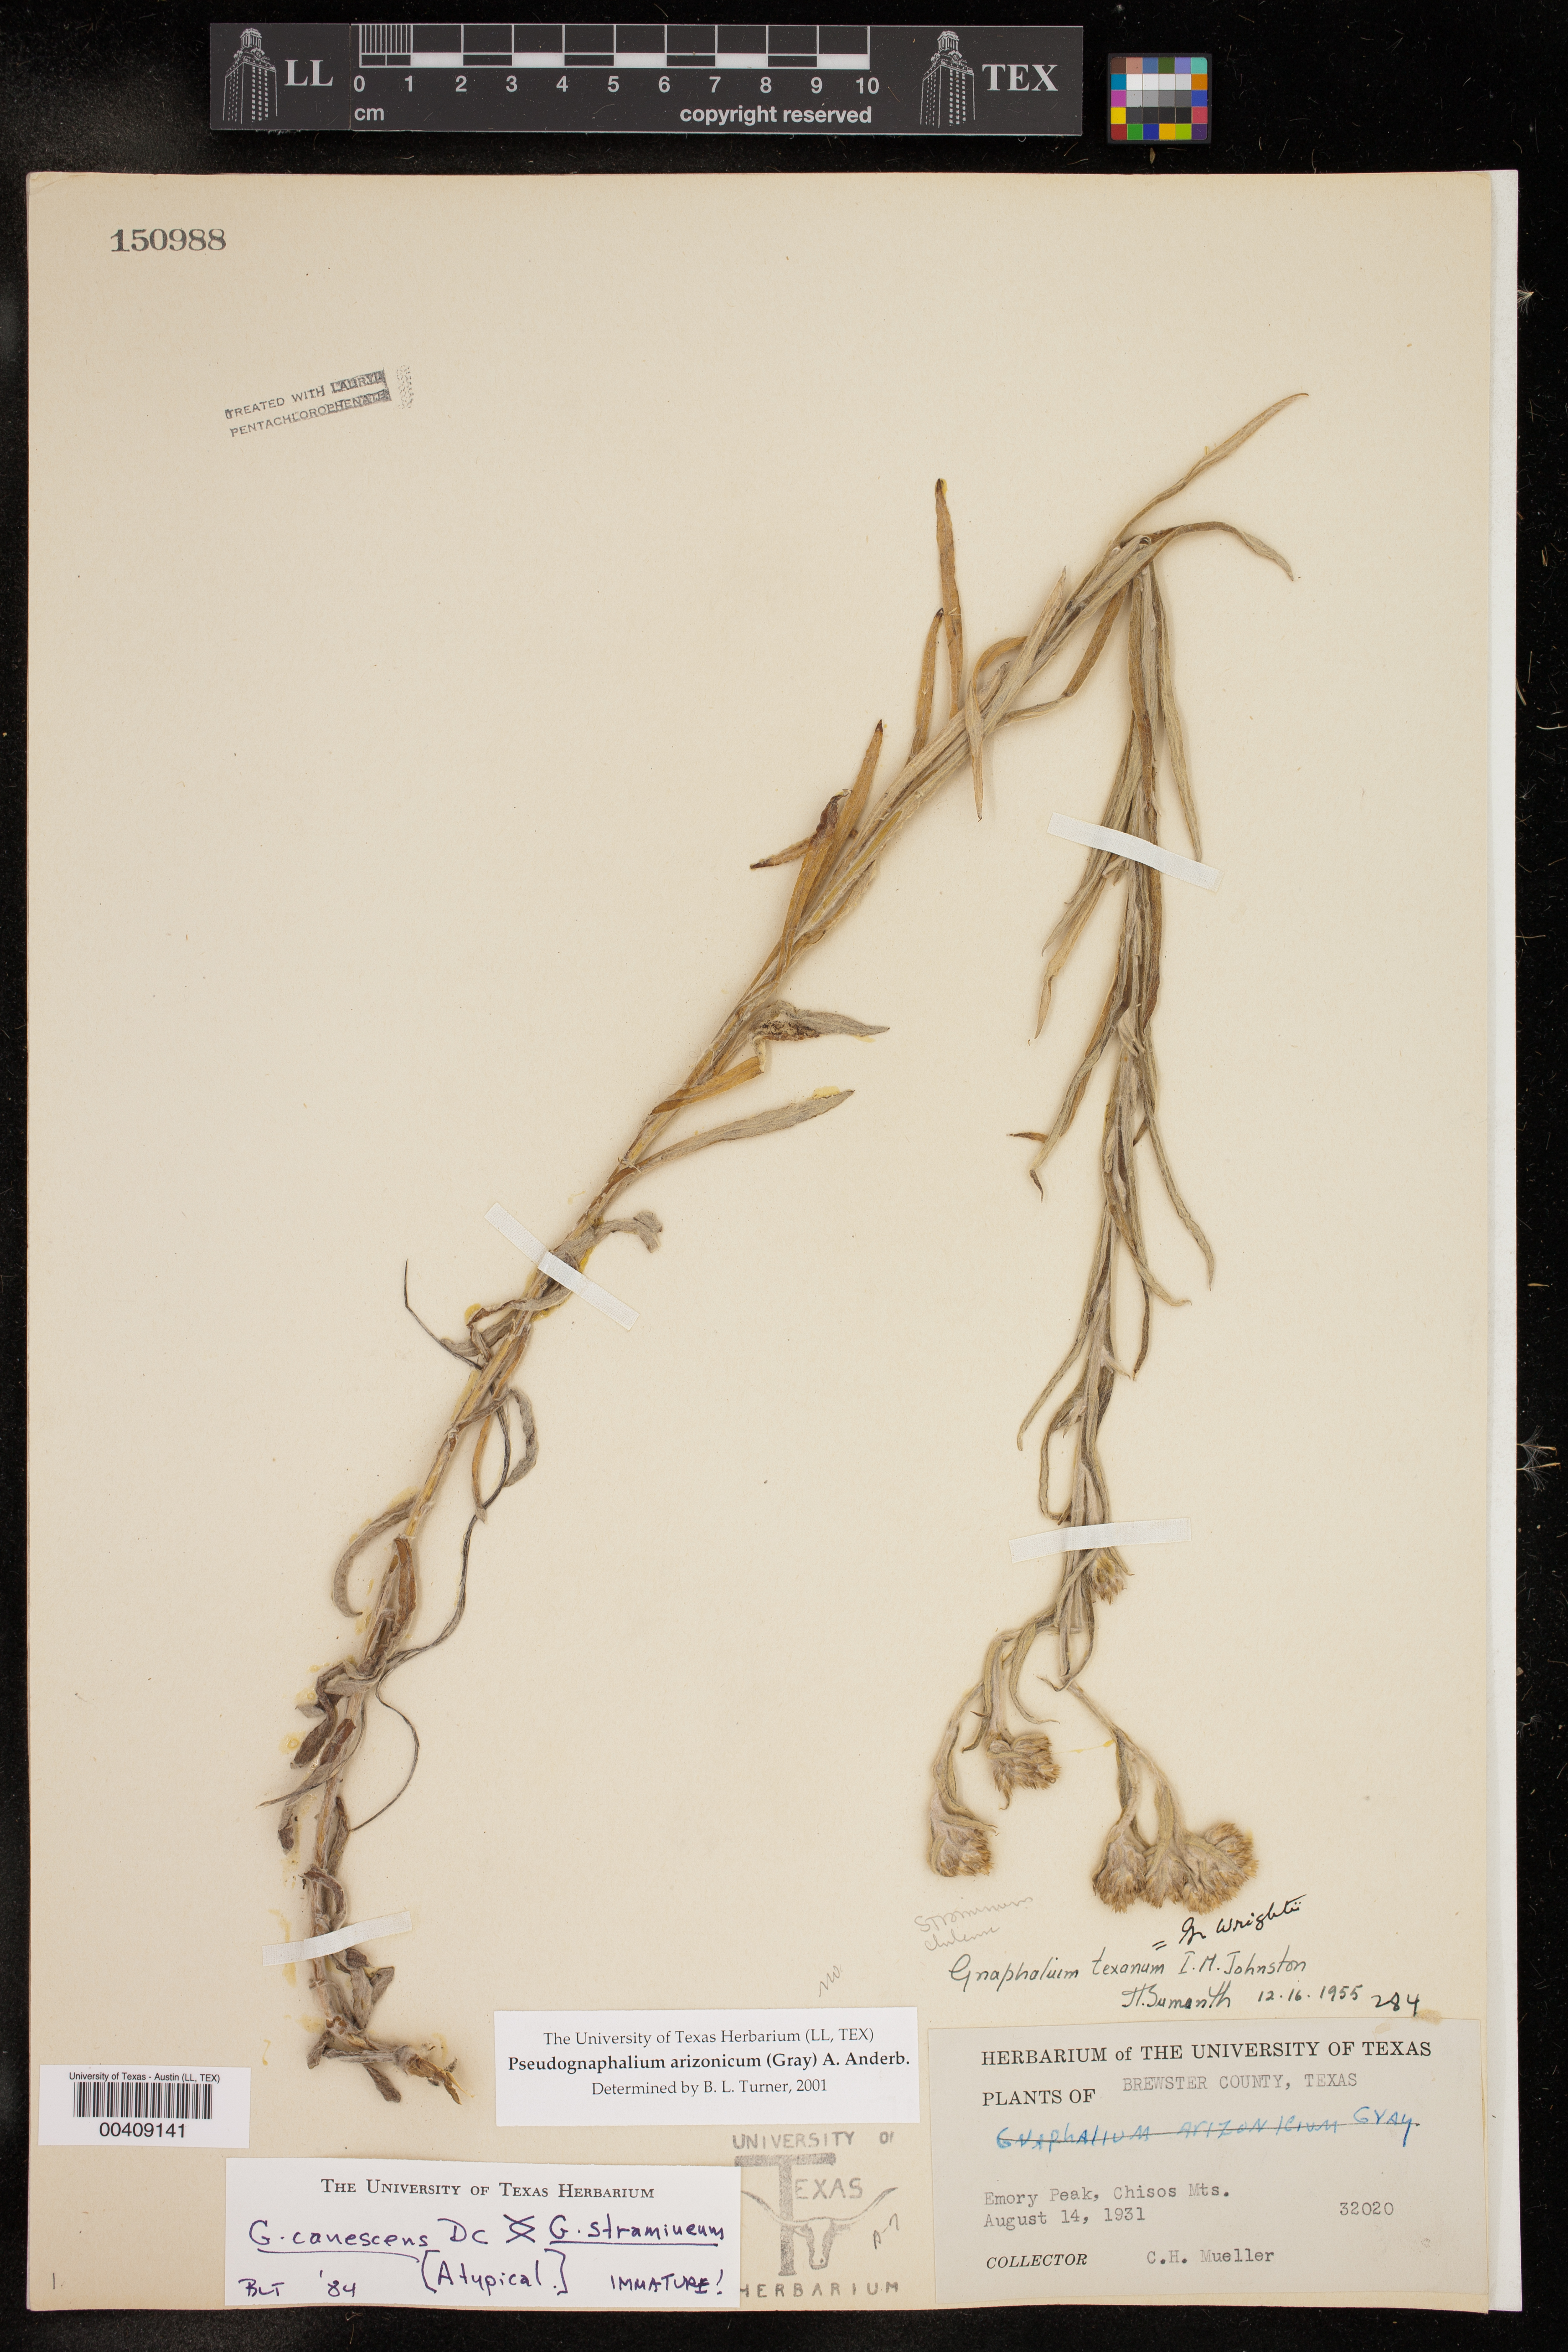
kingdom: Plantae
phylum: Tracheophyta
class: Magnoliopsida
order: Asterales
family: Asteraceae
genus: Pseudognaphalium
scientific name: Pseudognaphalium arizonicum
